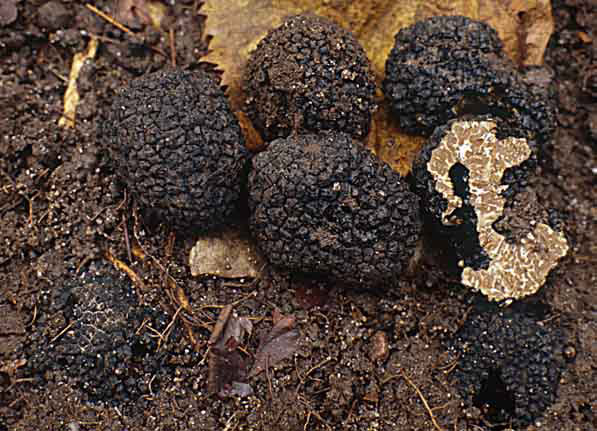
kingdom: Fungi
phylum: Ascomycota
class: Pezizomycetes
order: Pezizales
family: Tuberaceae
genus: Tuber
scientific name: Tuber aestivum
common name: sommer-trøffel
